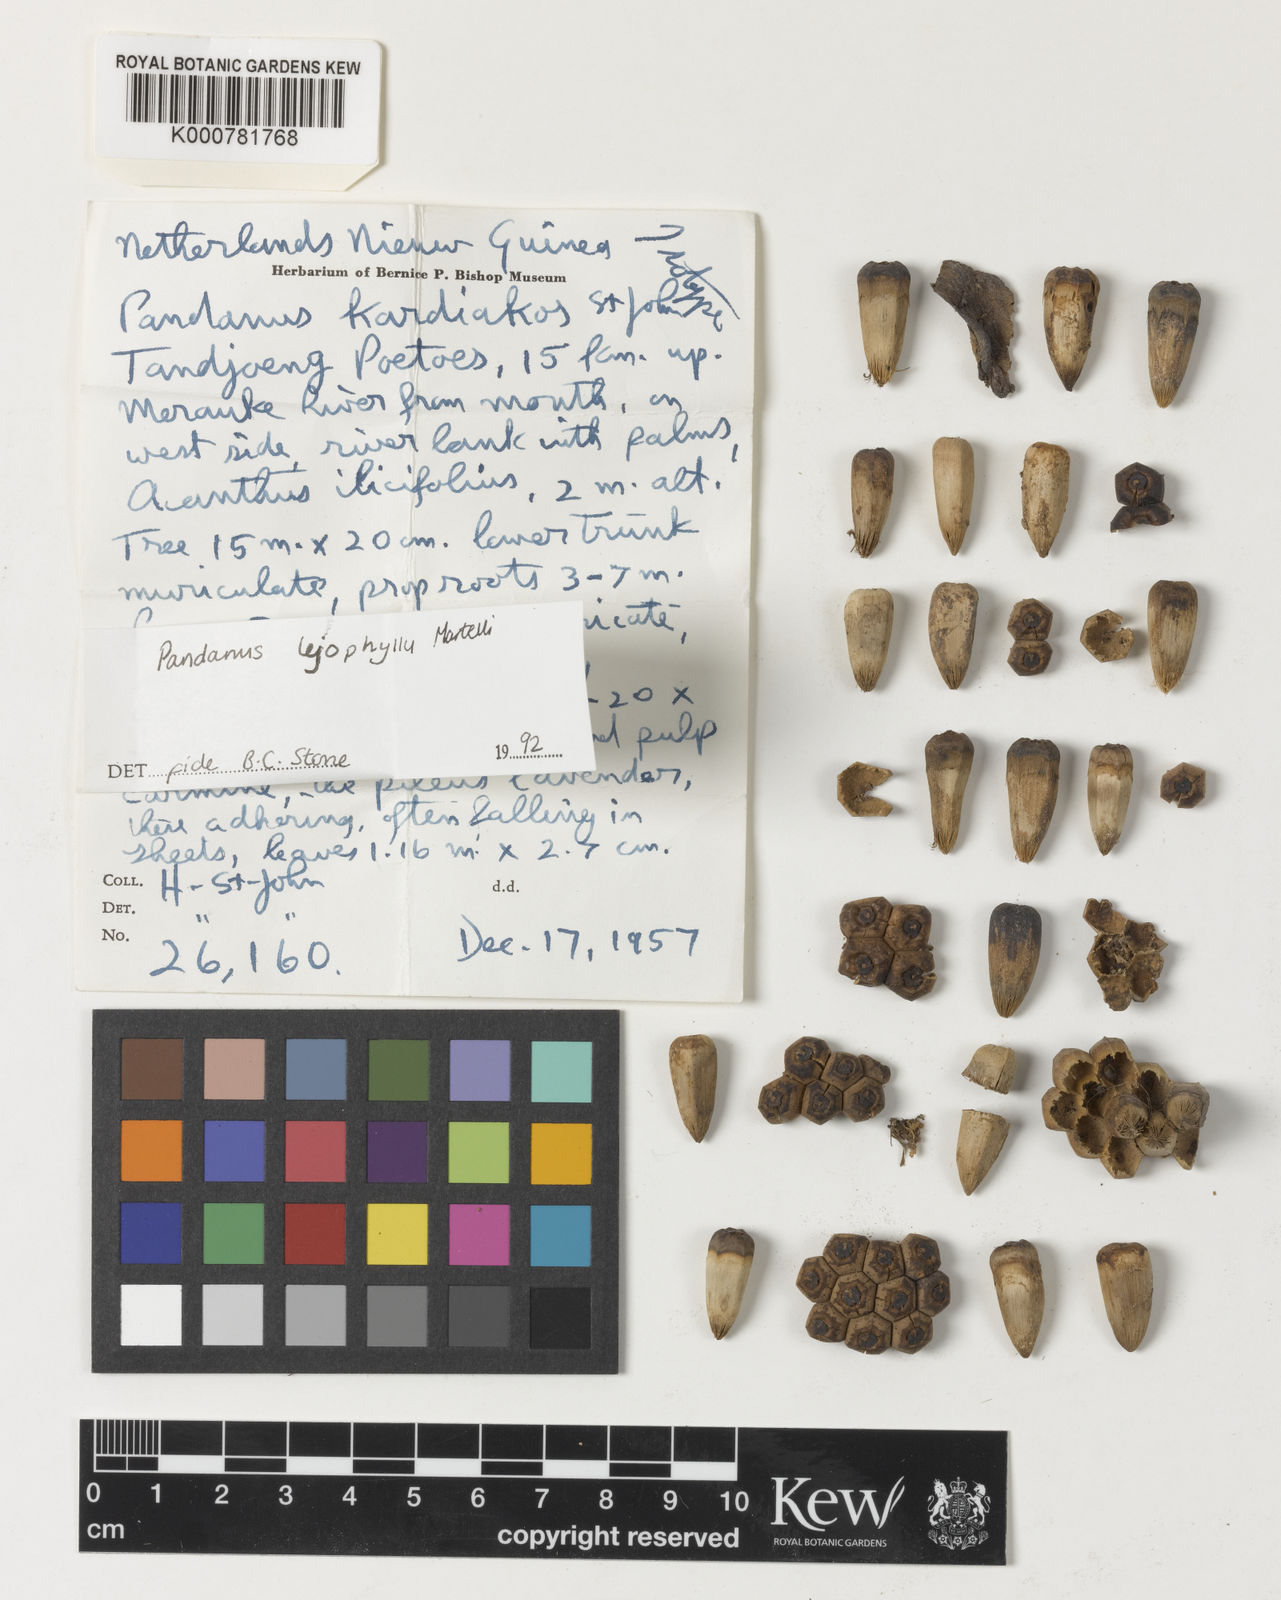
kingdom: Plantae
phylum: Tracheophyta
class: Liliopsida
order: Pandanales
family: Pandanaceae
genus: Pandanus
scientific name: Pandanus leiophyllus
